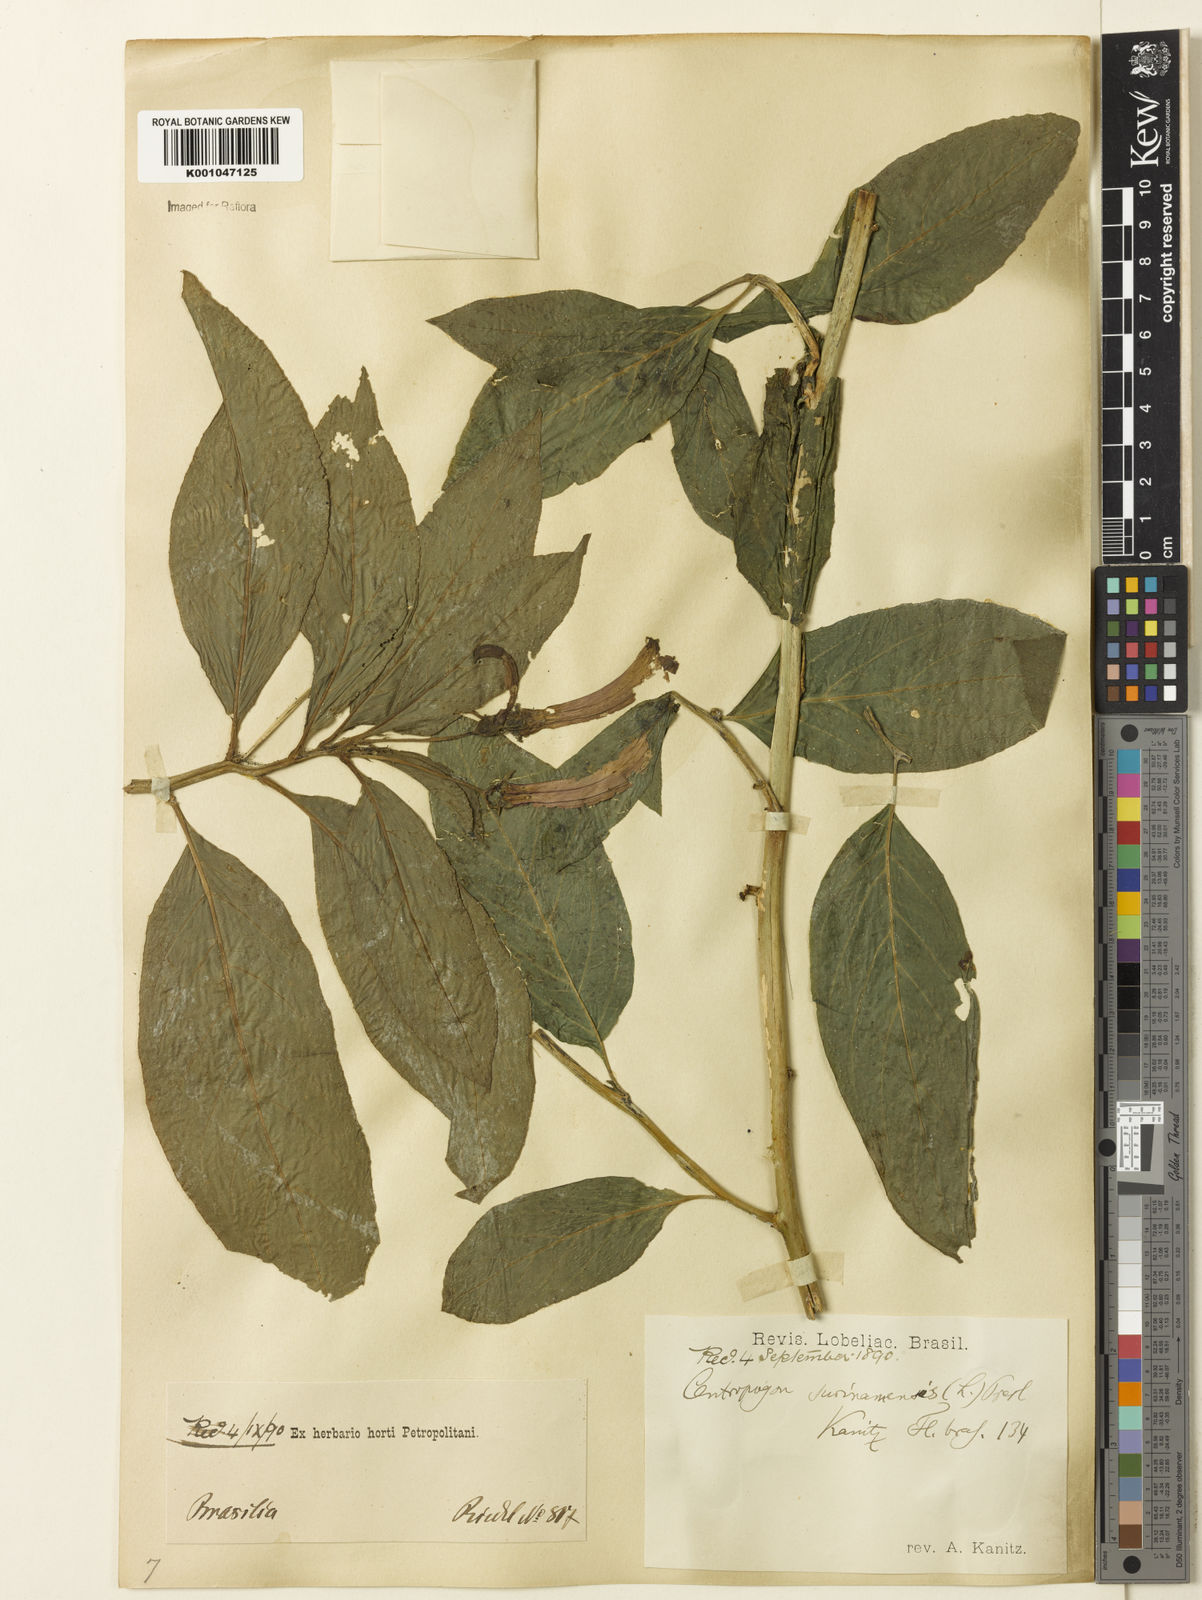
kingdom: Plantae
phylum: Tracheophyta
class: Magnoliopsida
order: Asterales
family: Campanulaceae
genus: Centropogon
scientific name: Centropogon cornutus
